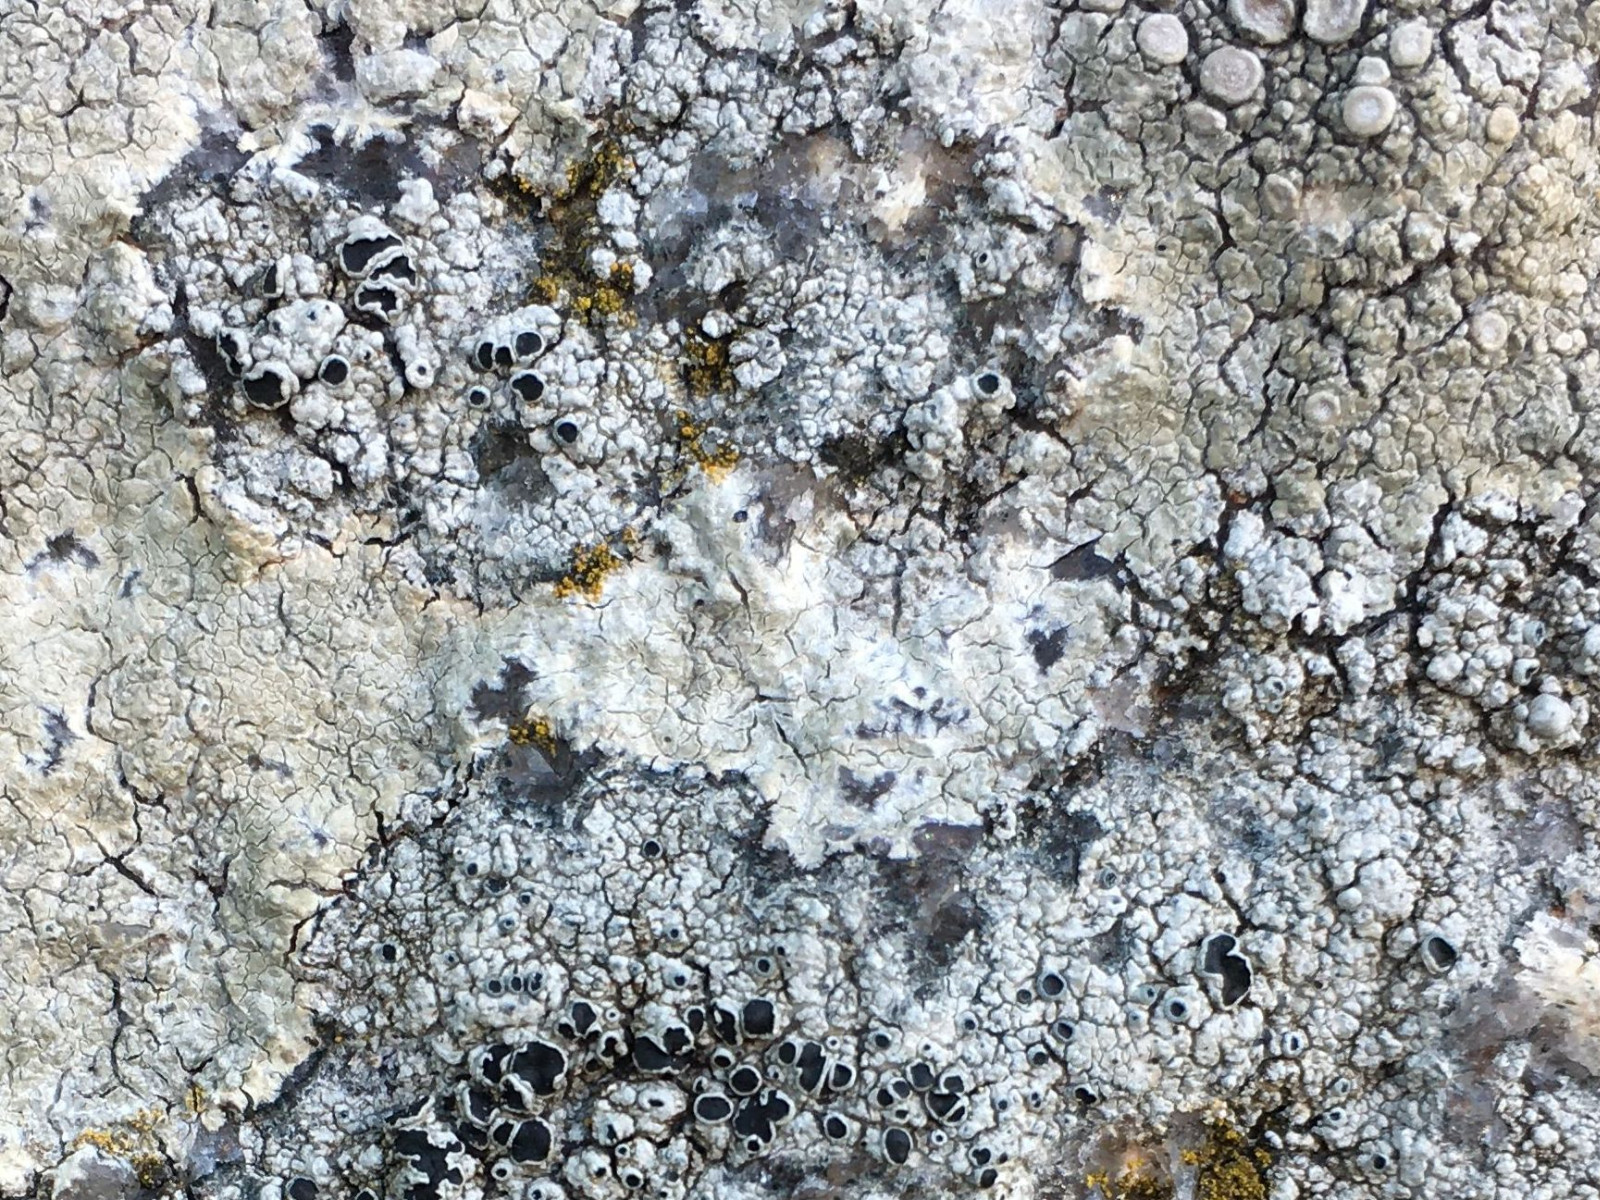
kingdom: Fungi
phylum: Ascomycota
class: Lecanoromycetes
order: Lecanorales
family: Tephromelataceae
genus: Tephromela
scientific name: Tephromela atra
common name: sortfrugtet kantskivelav
